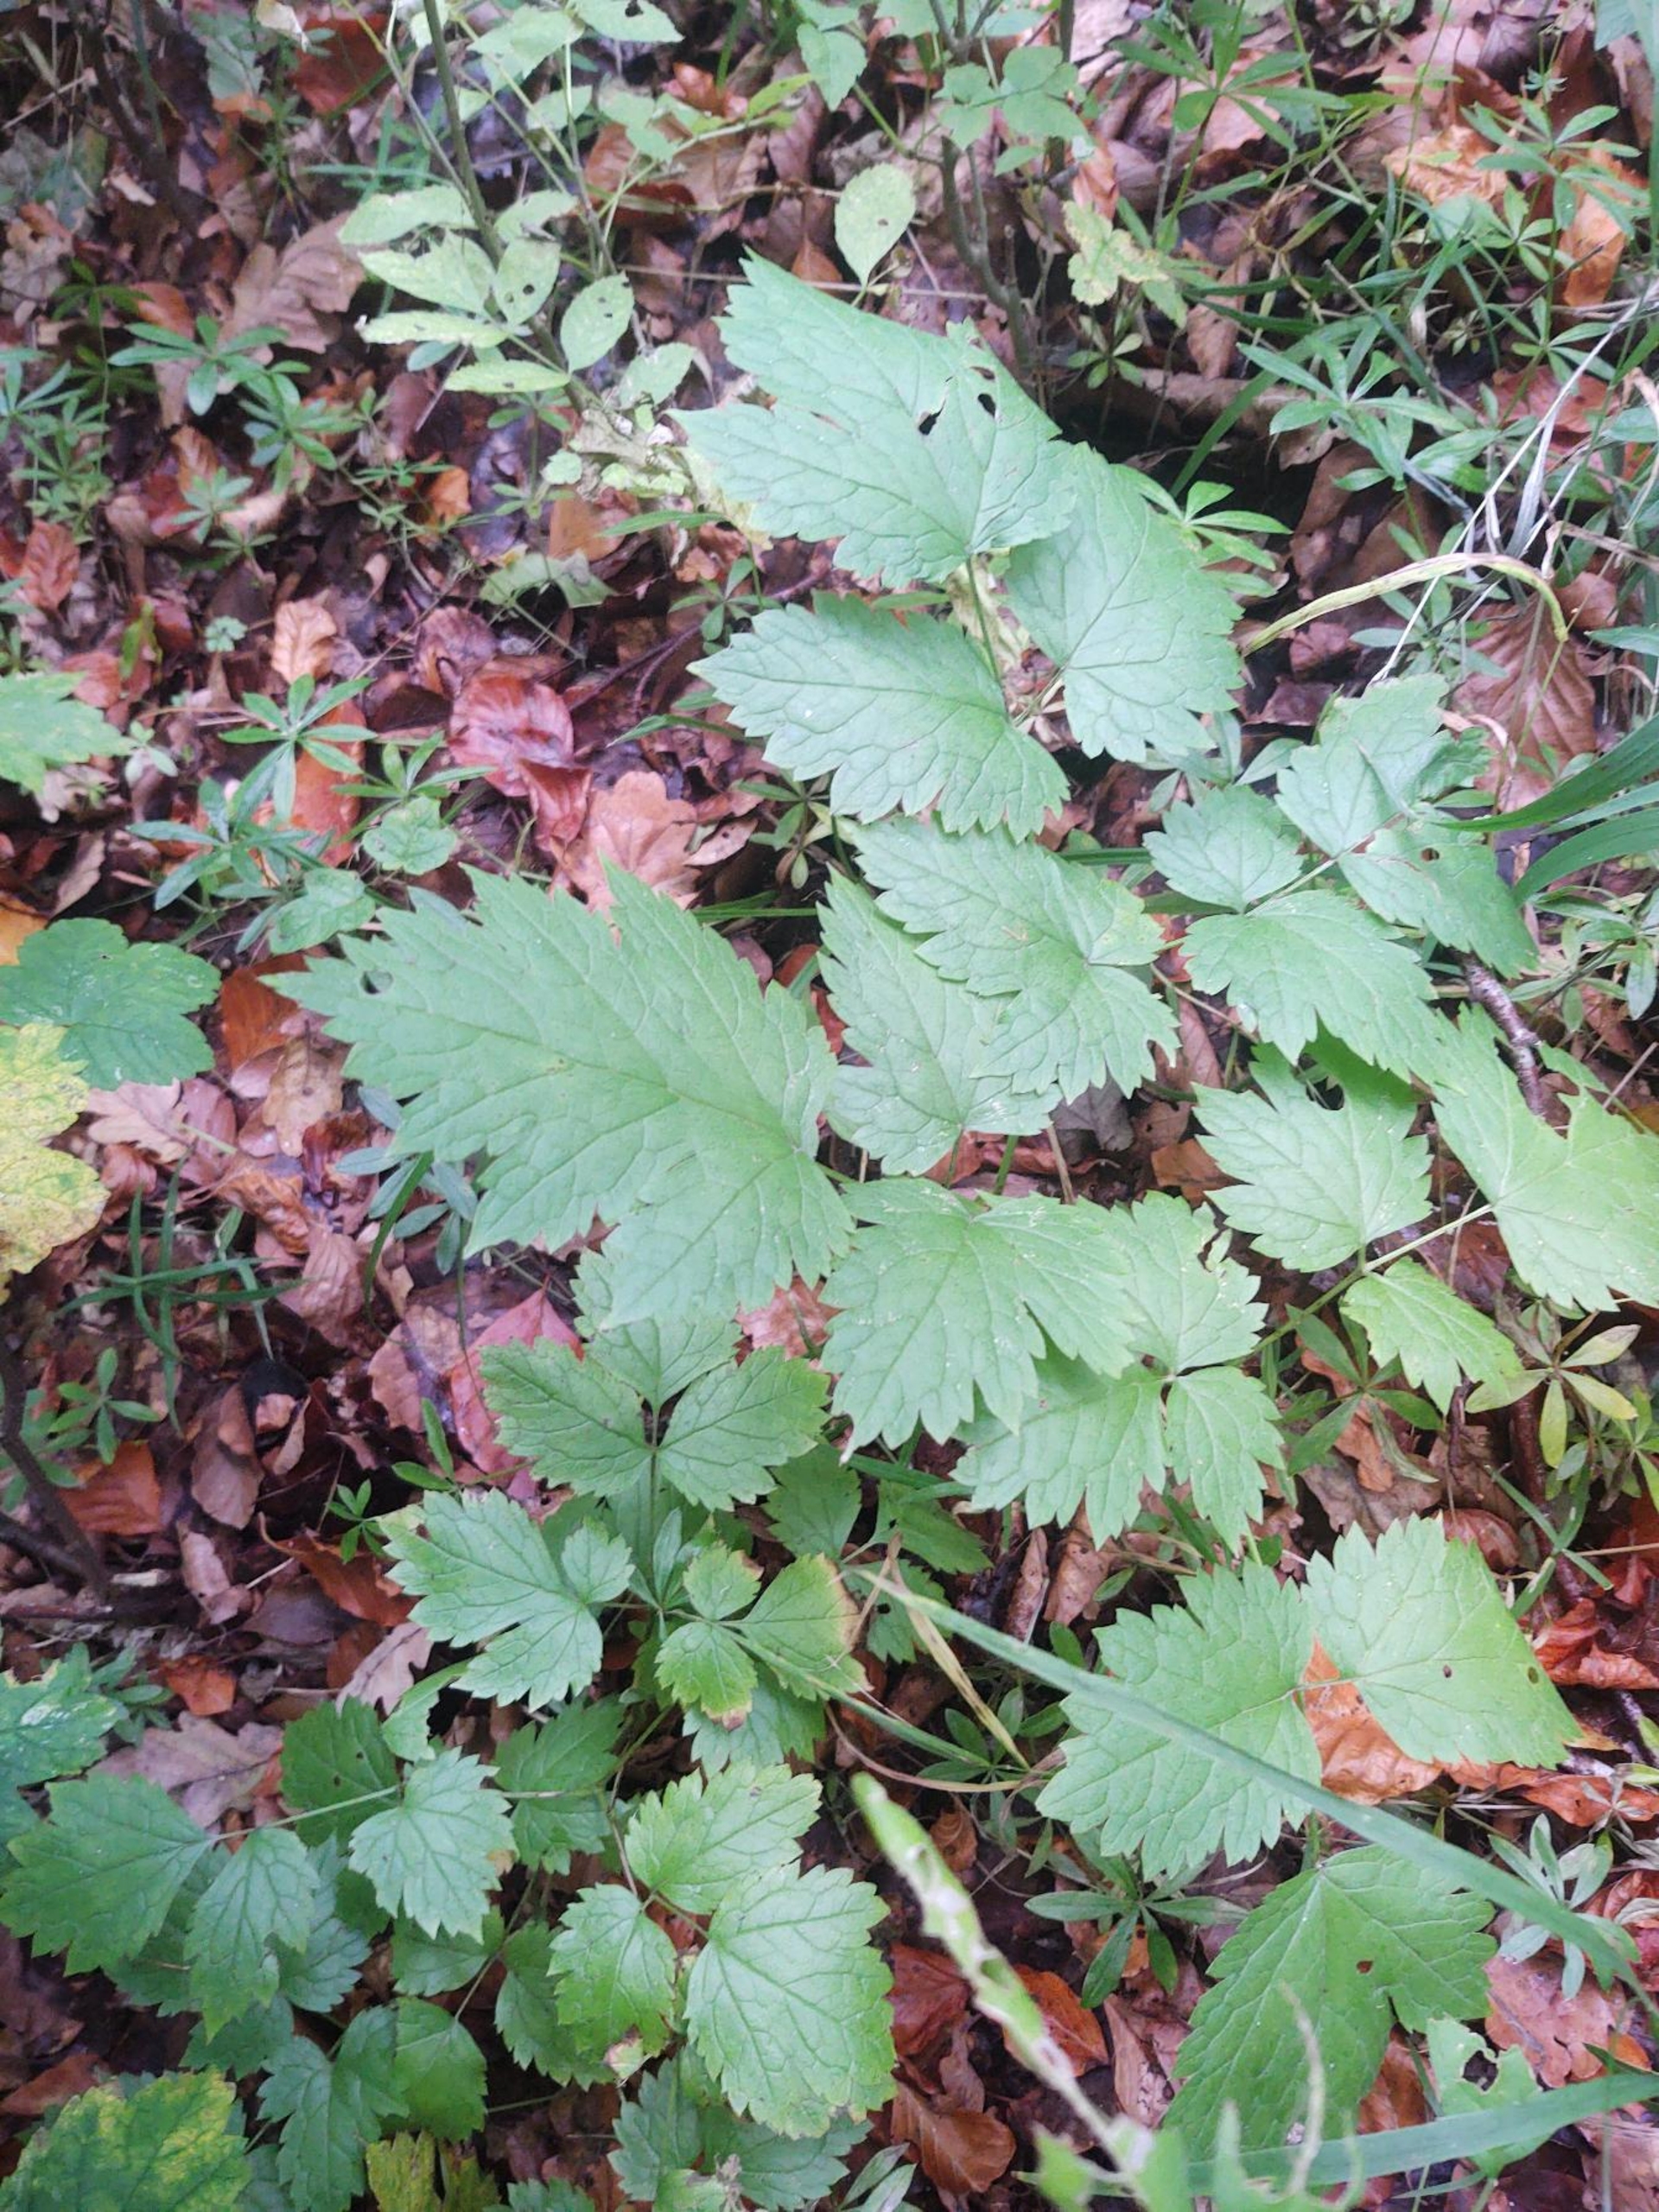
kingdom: Plantae
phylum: Tracheophyta
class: Magnoliopsida
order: Ranunculales
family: Ranunculaceae
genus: Actaea
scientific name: Actaea spicata
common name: Druemunke
